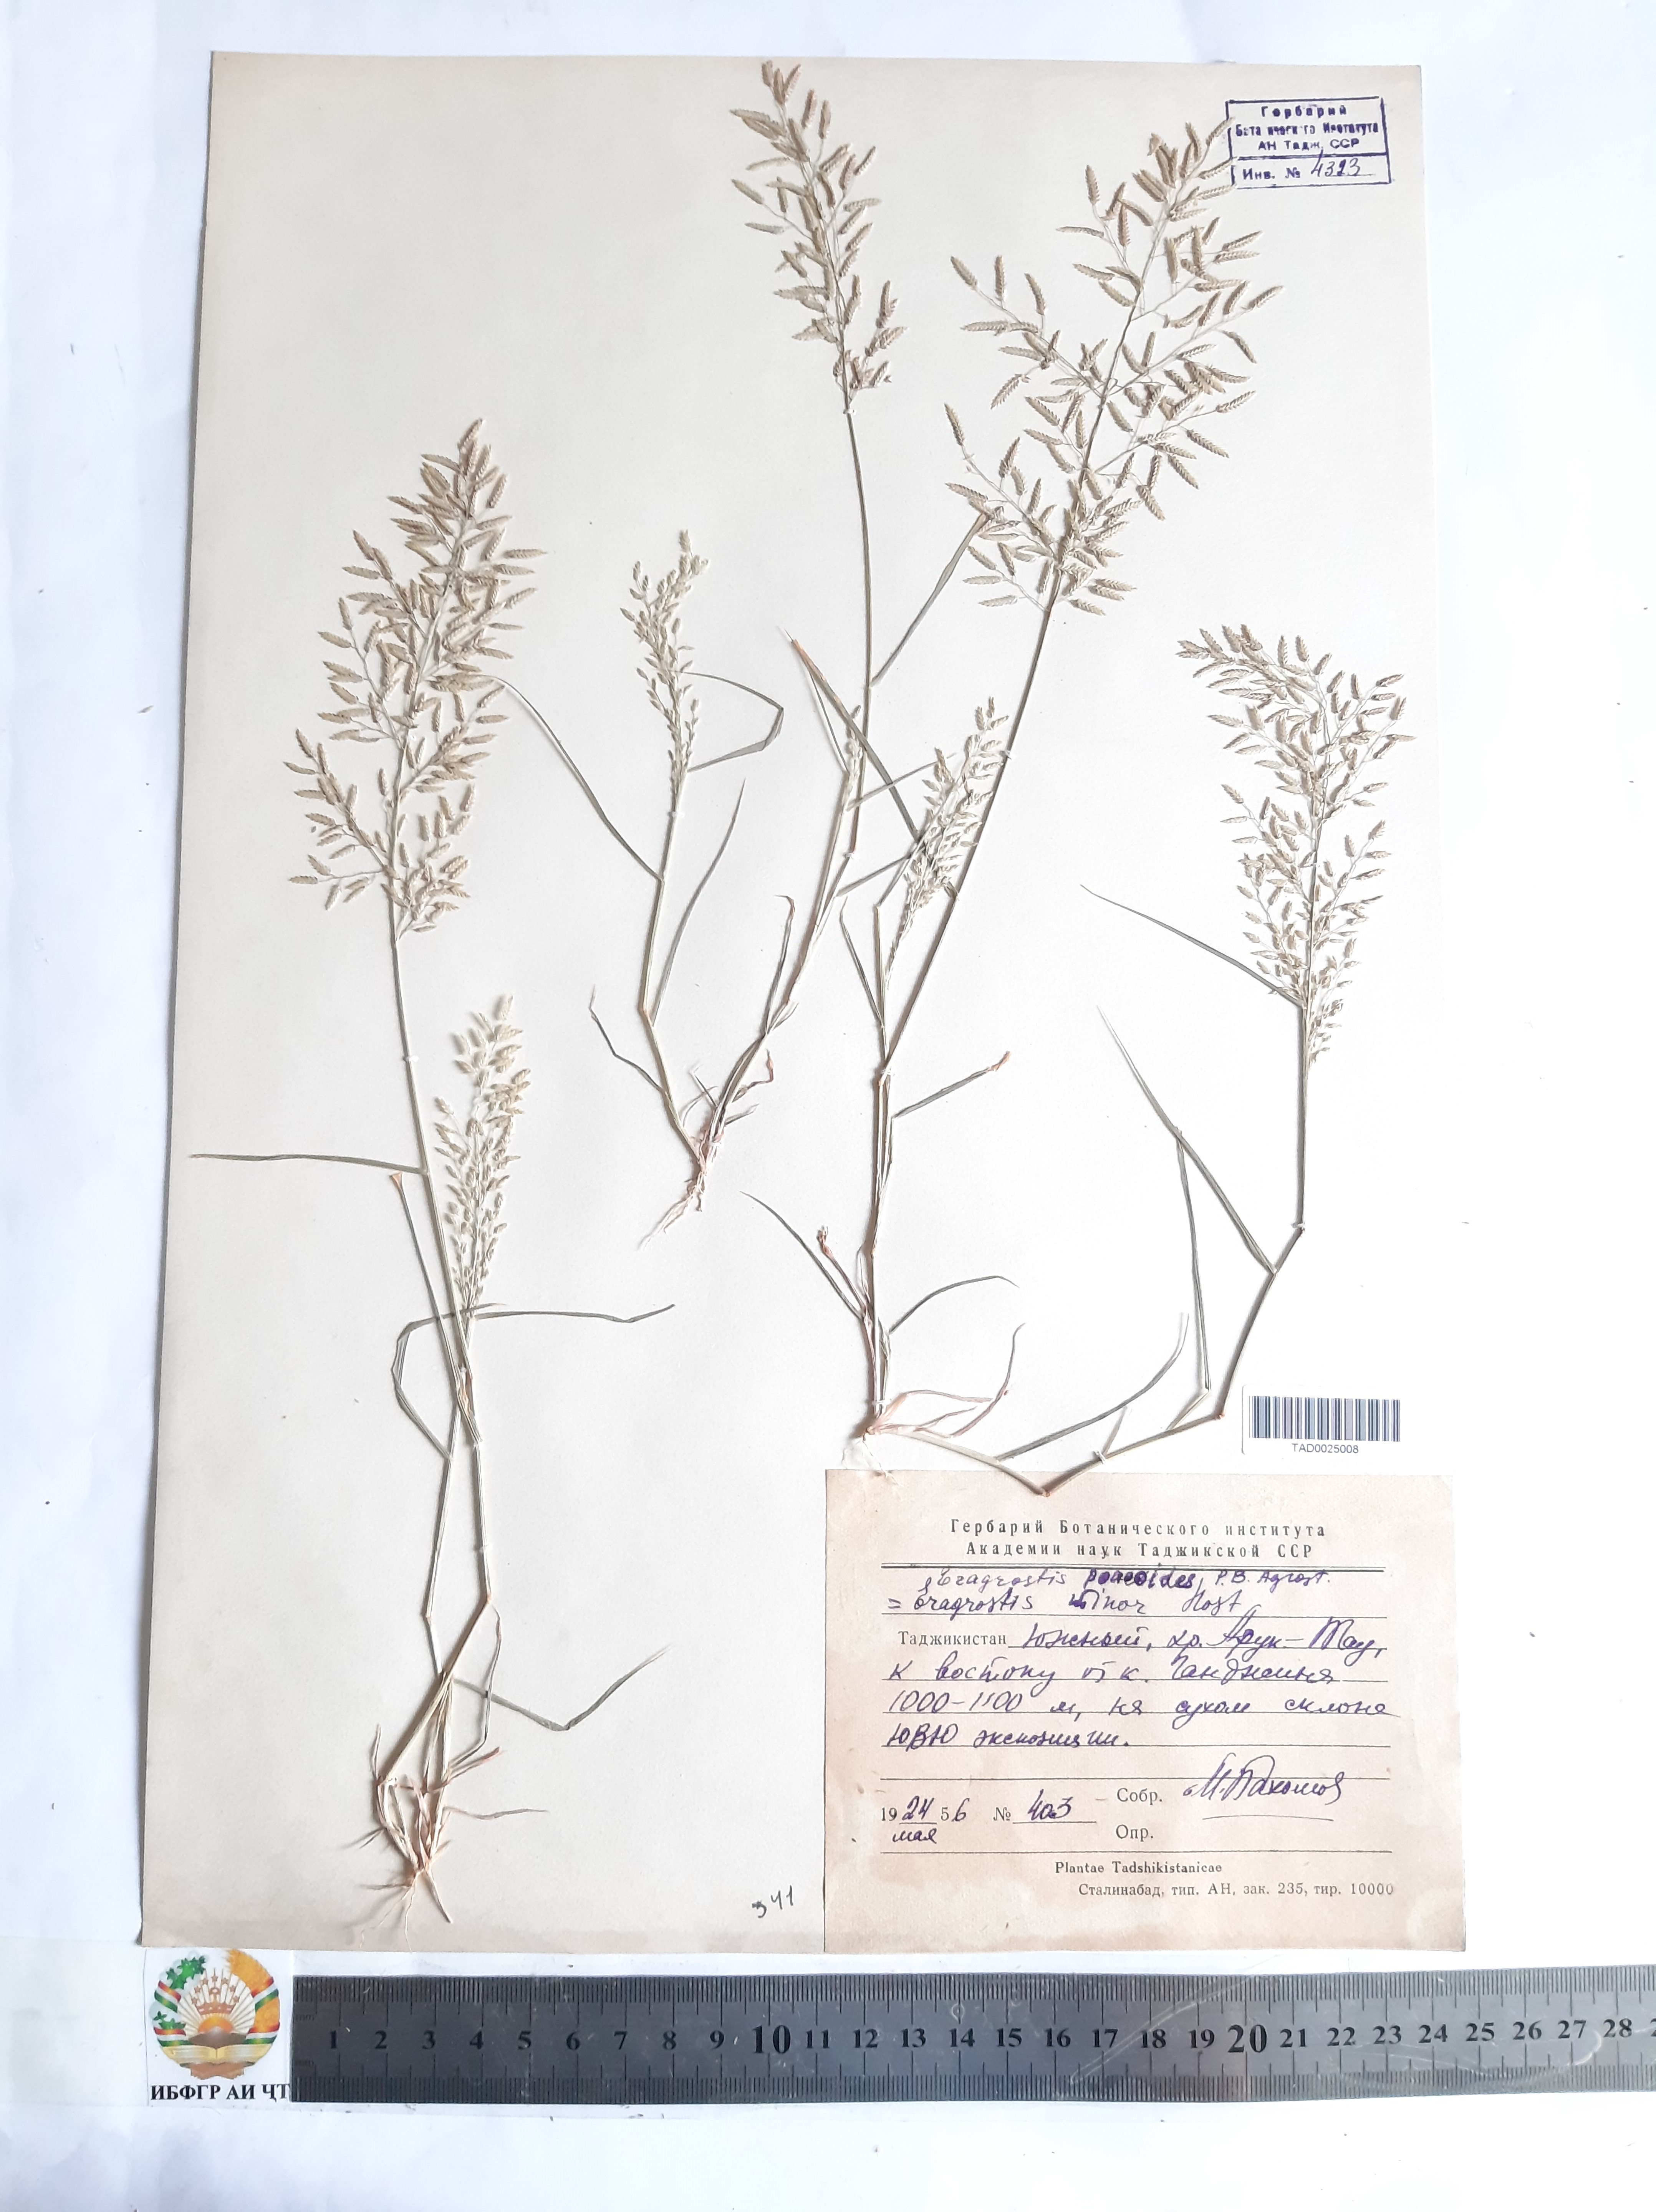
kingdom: Plantae
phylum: Tracheophyta
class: Liliopsida
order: Poales
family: Poaceae
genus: Eragrostis
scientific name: Eragrostis minor
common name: Small love-grass
